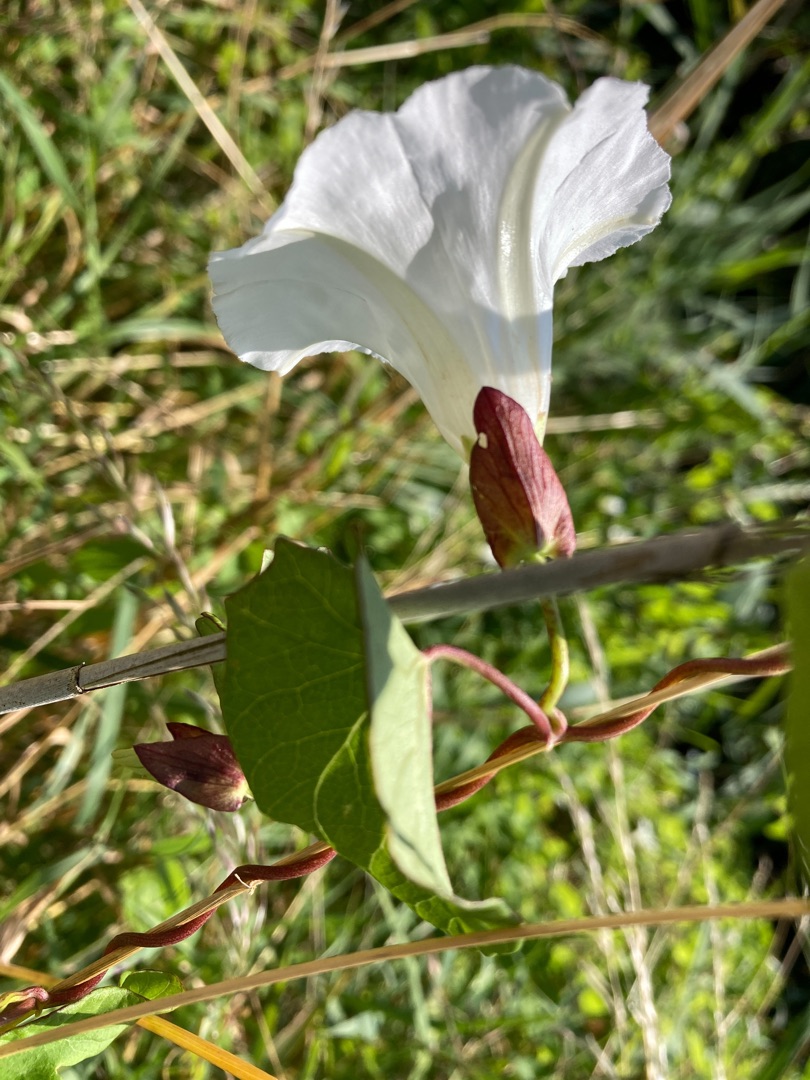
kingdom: Plantae
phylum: Tracheophyta
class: Magnoliopsida
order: Solanales
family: Convolvulaceae
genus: Calystegia
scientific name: Calystegia sepium
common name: Gærde-snerle
